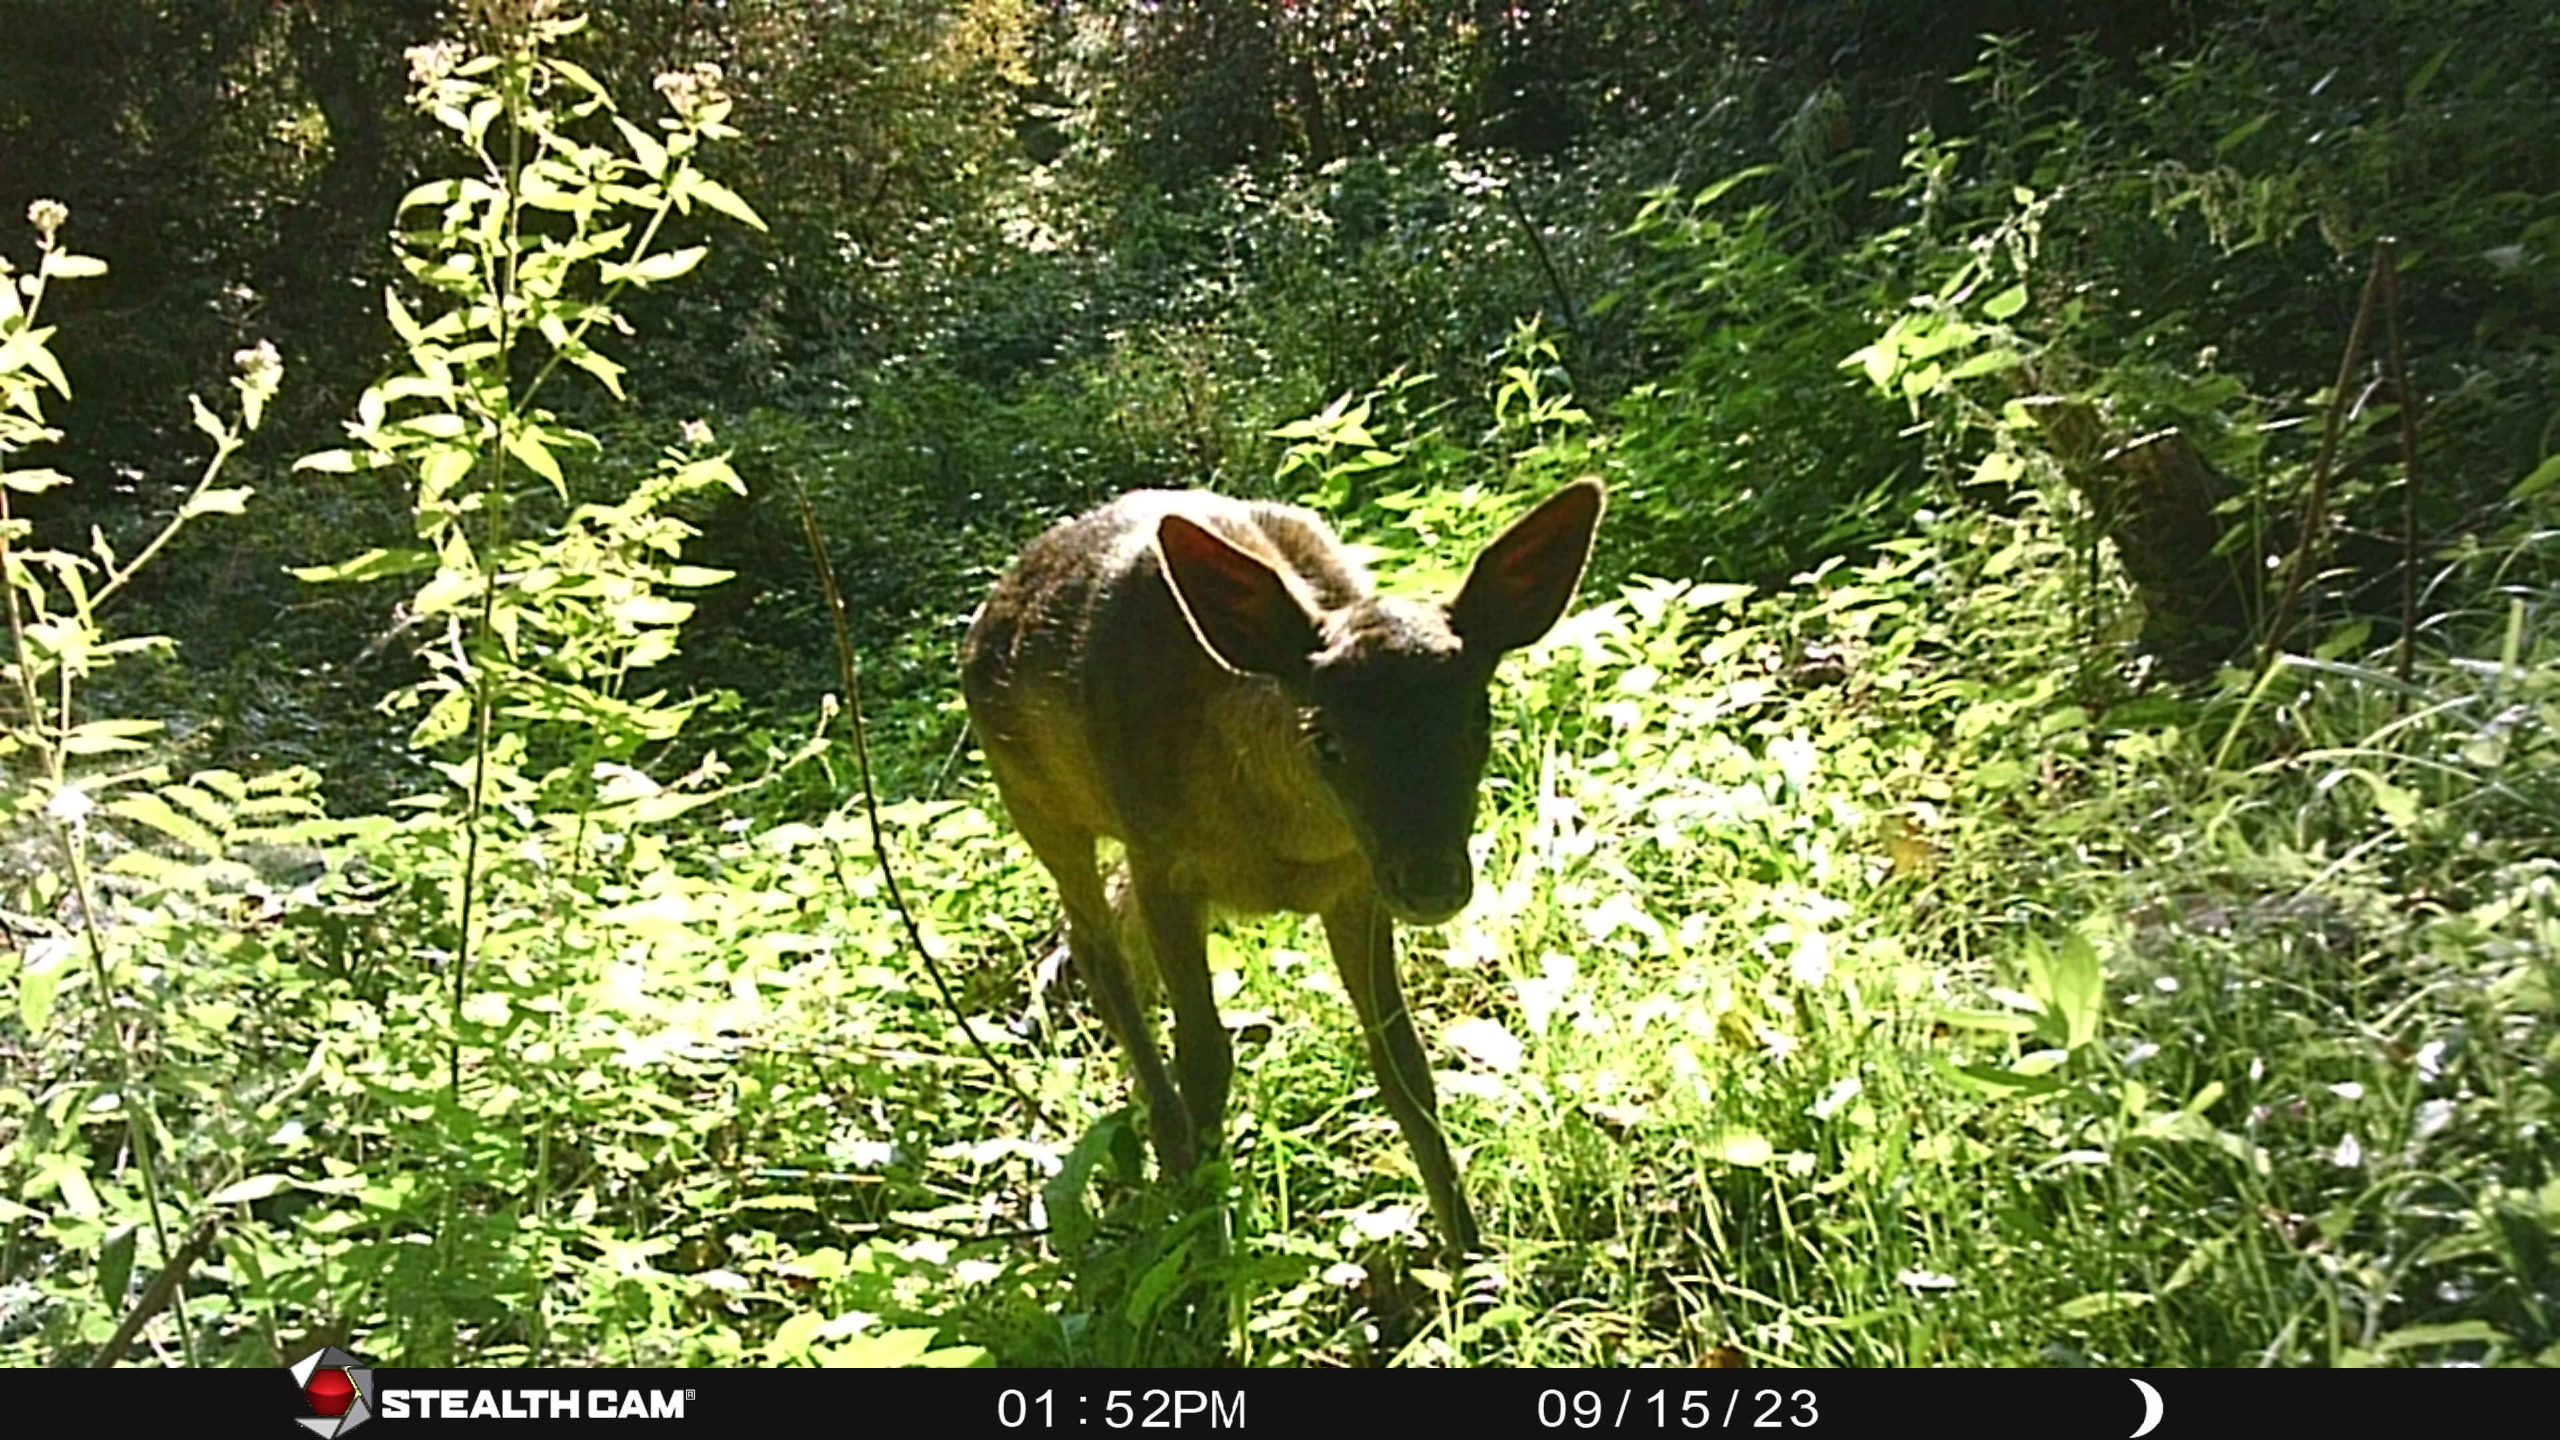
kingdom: Animalia
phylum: Chordata
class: Mammalia
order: Artiodactyla
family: Cervidae
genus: Dama
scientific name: Dama dama
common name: Dådyr
